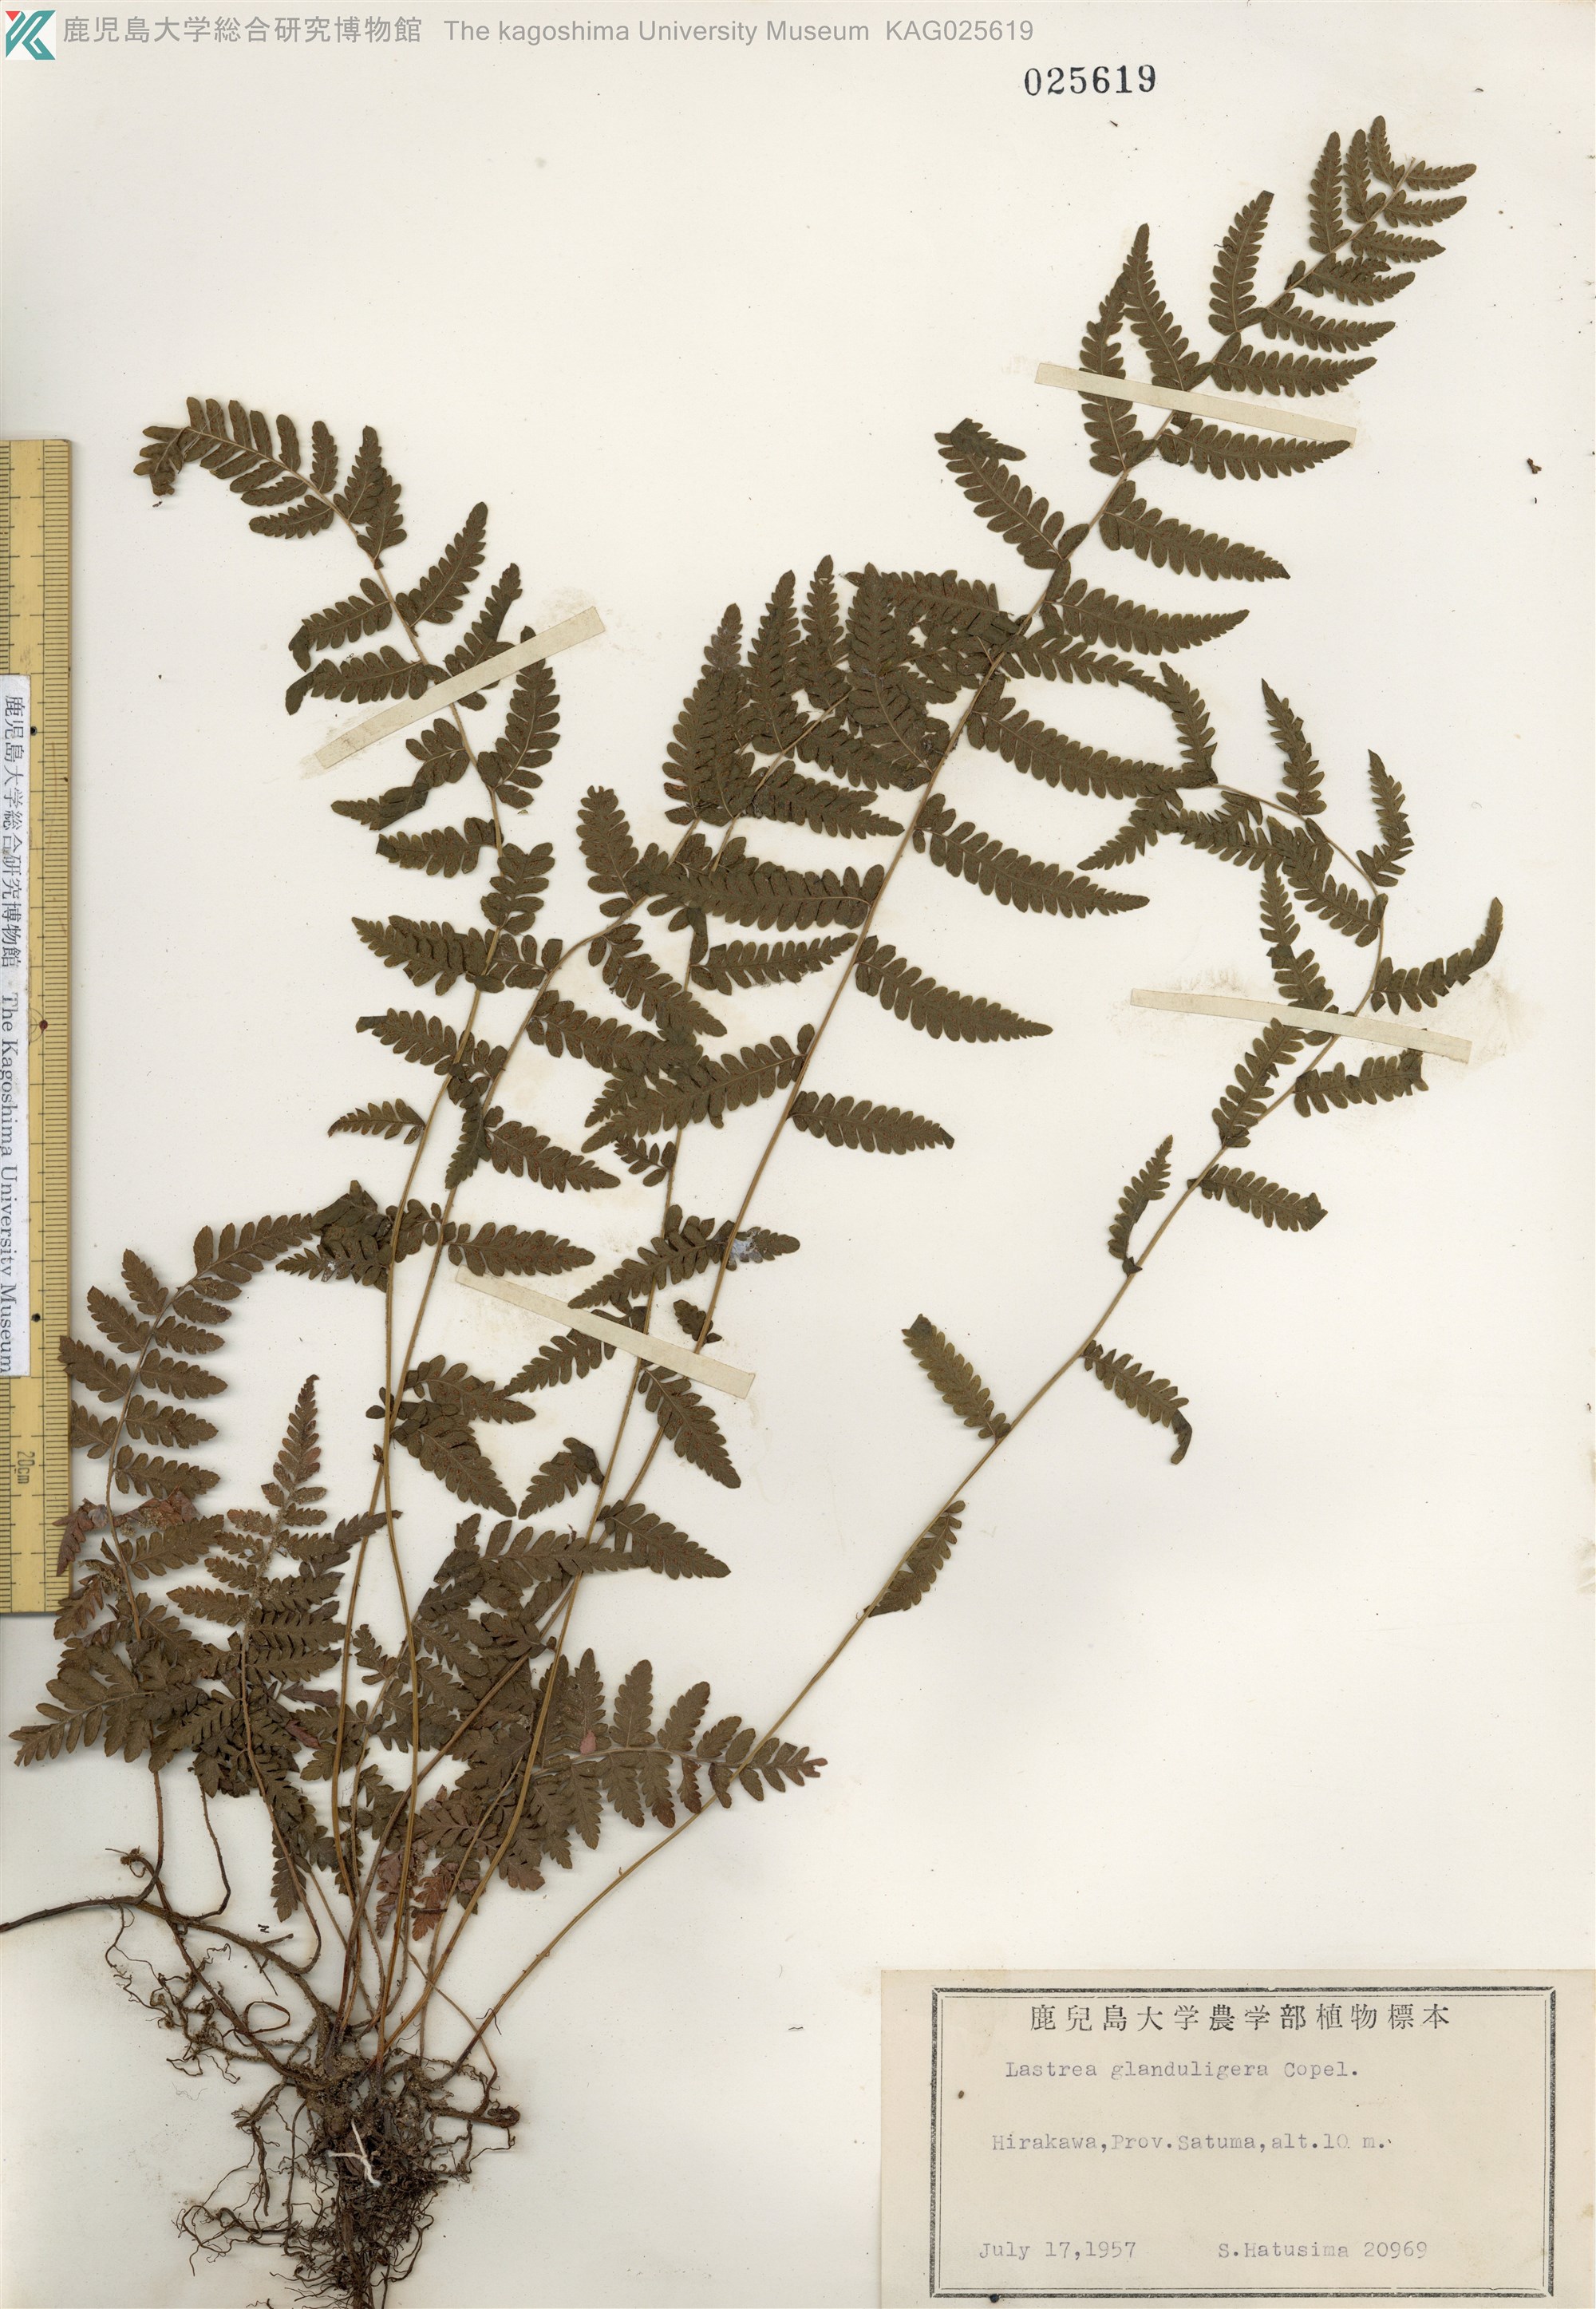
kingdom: Plantae
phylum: Tracheophyta
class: Polypodiopsida
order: Polypodiales
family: Thelypteridaceae
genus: Amauropelta
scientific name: Amauropelta angustifrons
